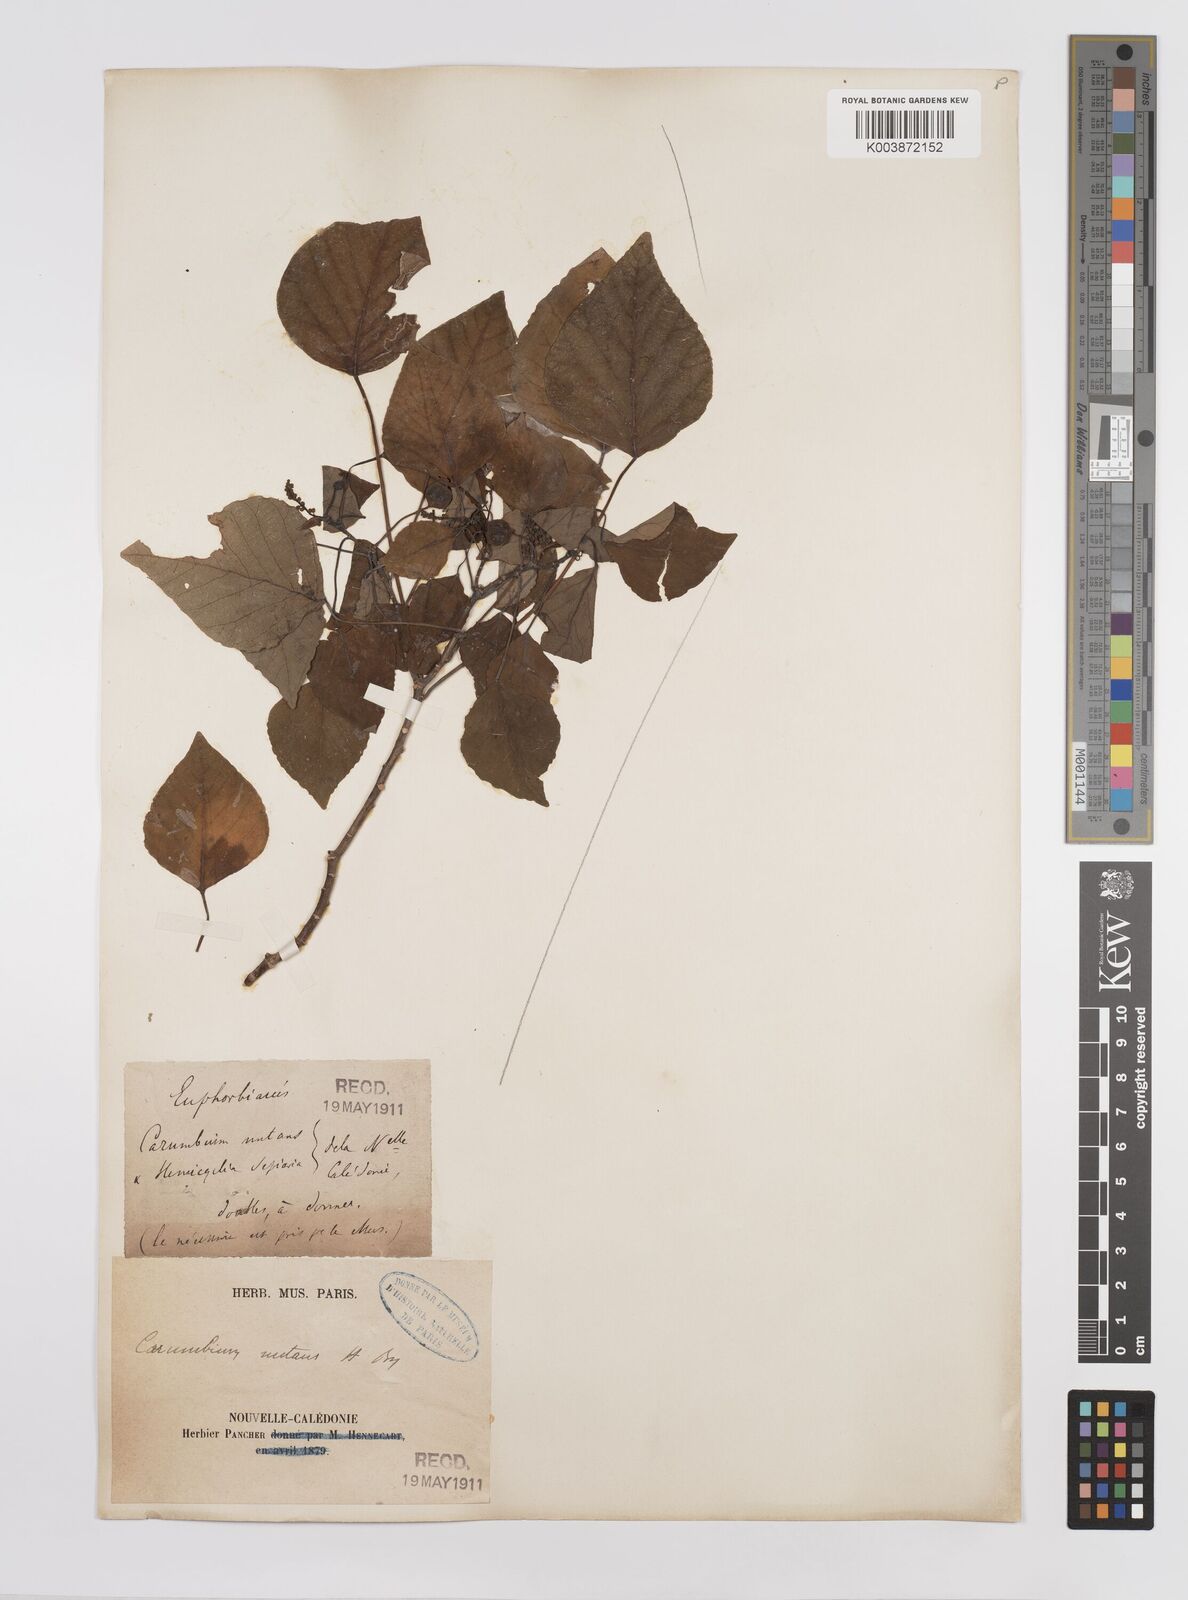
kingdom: Plantae
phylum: Tracheophyta
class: Magnoliopsida
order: Malpighiales
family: Euphorbiaceae
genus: Homalanthus
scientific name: Homalanthus nutans
